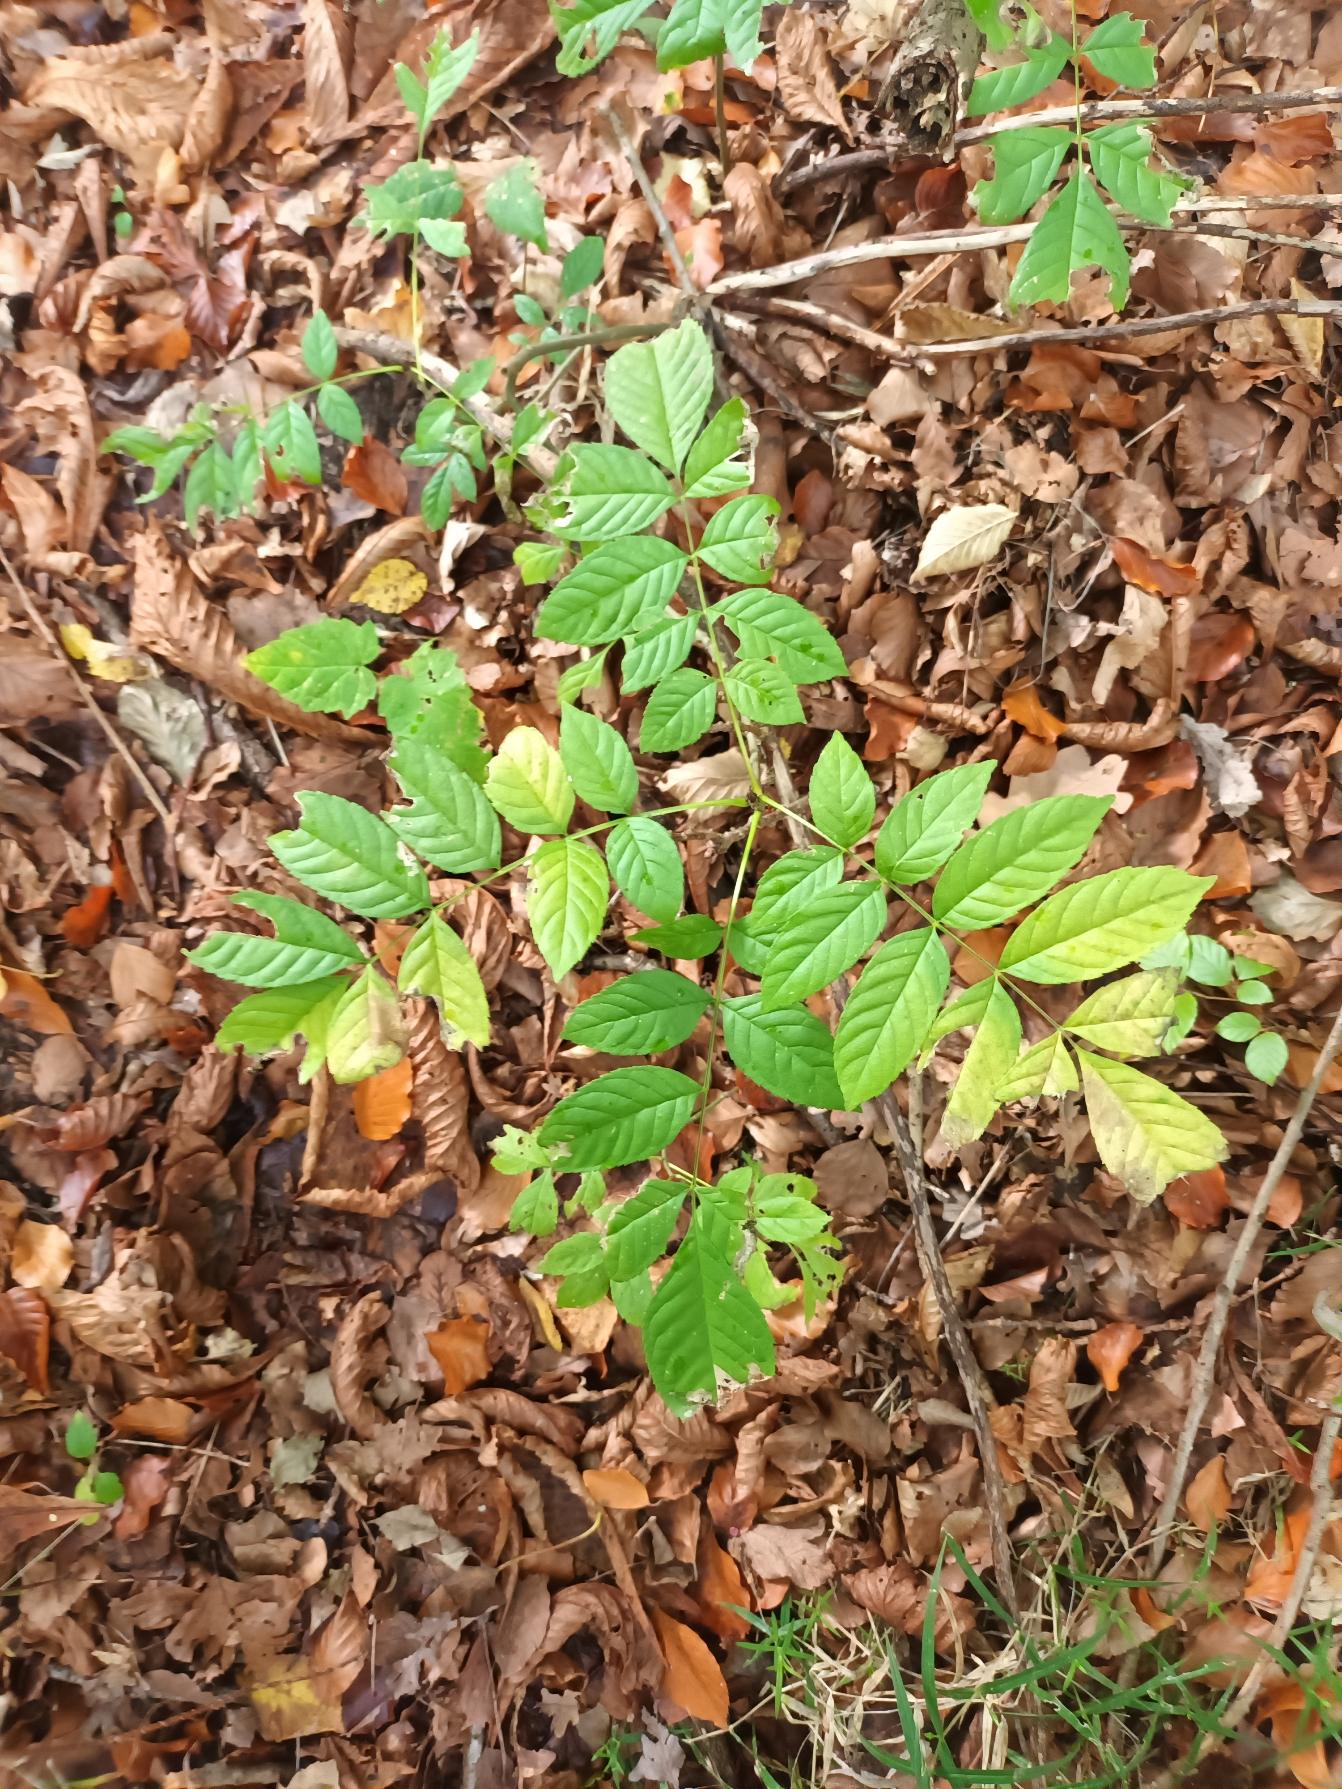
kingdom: Plantae
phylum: Tracheophyta
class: Magnoliopsida
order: Lamiales
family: Oleaceae
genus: Fraxinus
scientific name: Fraxinus excelsior
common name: Ask
